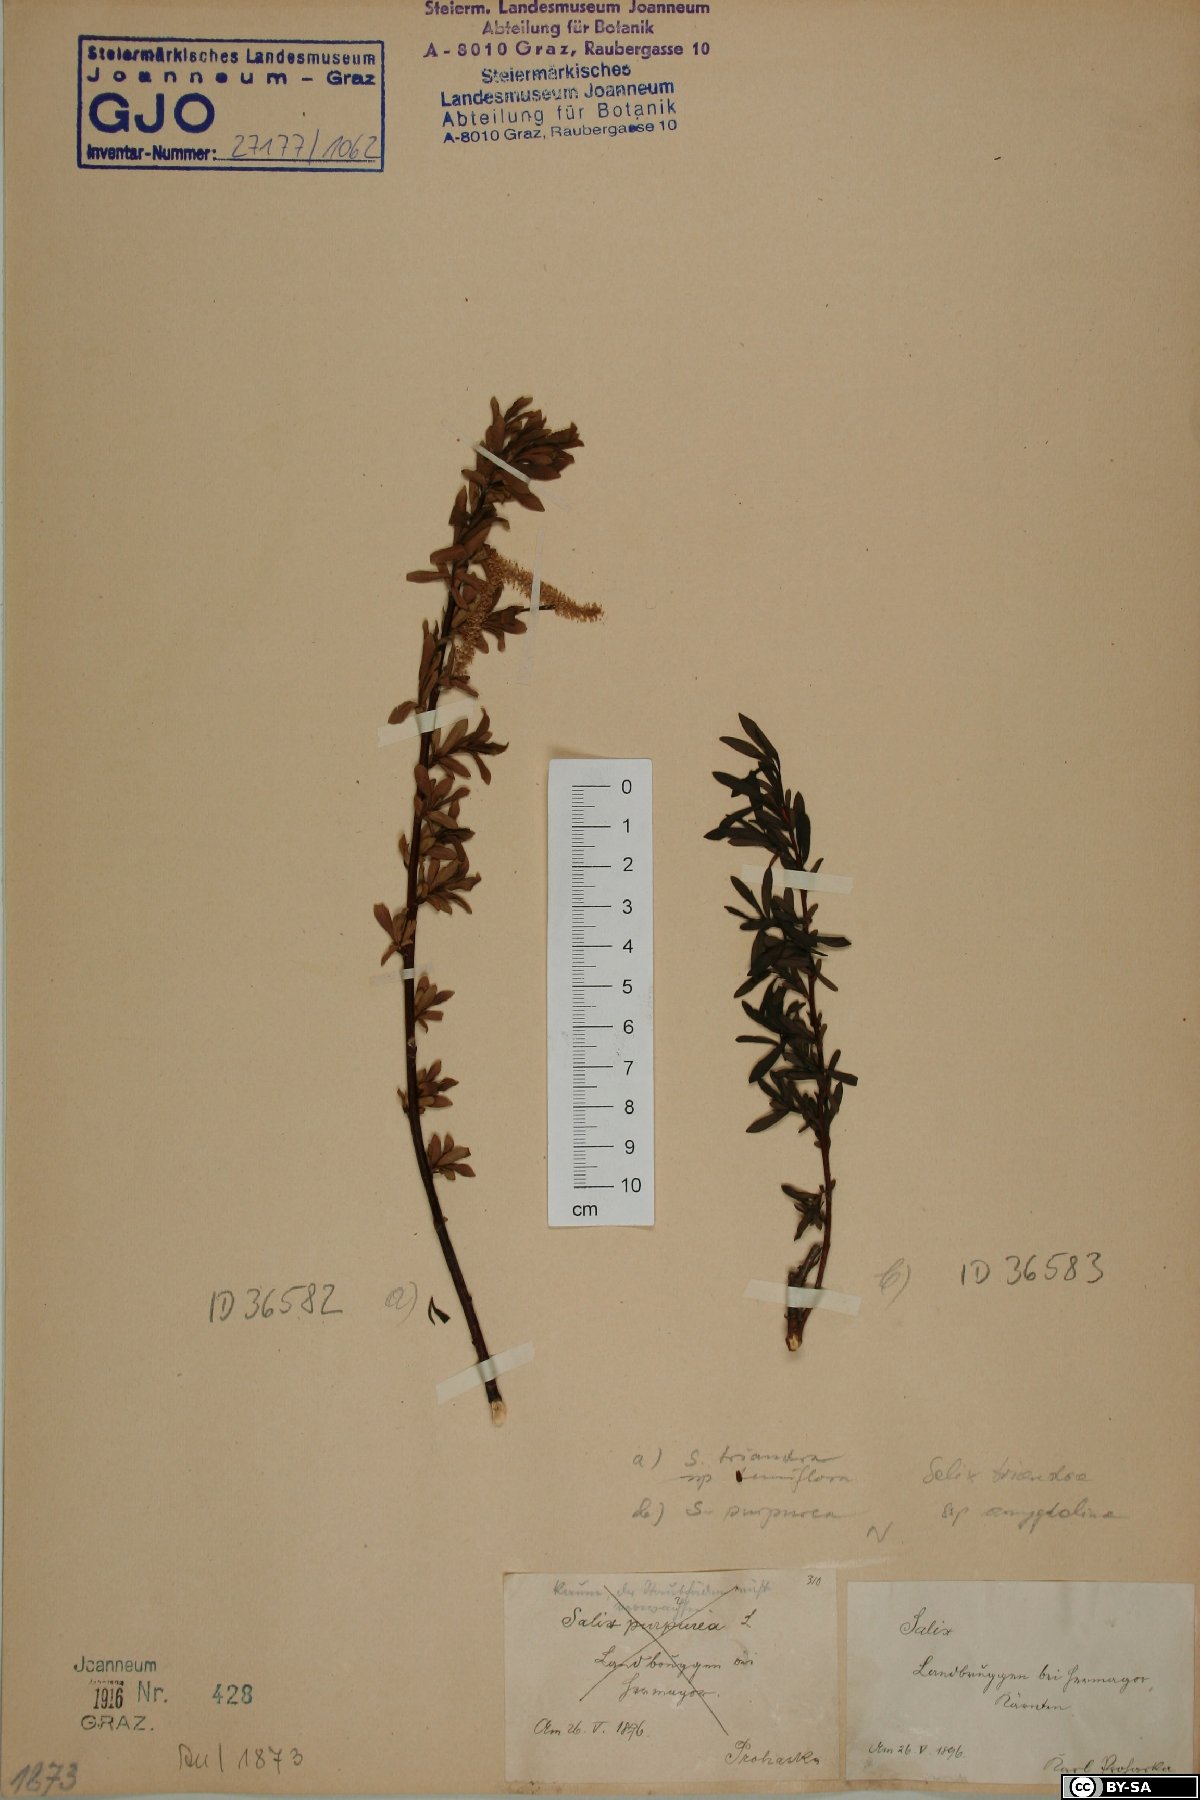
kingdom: Plantae
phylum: Tracheophyta
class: Magnoliopsida
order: Malpighiales
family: Salicaceae
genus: Salix
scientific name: Salix purpurea
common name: Purple willow
